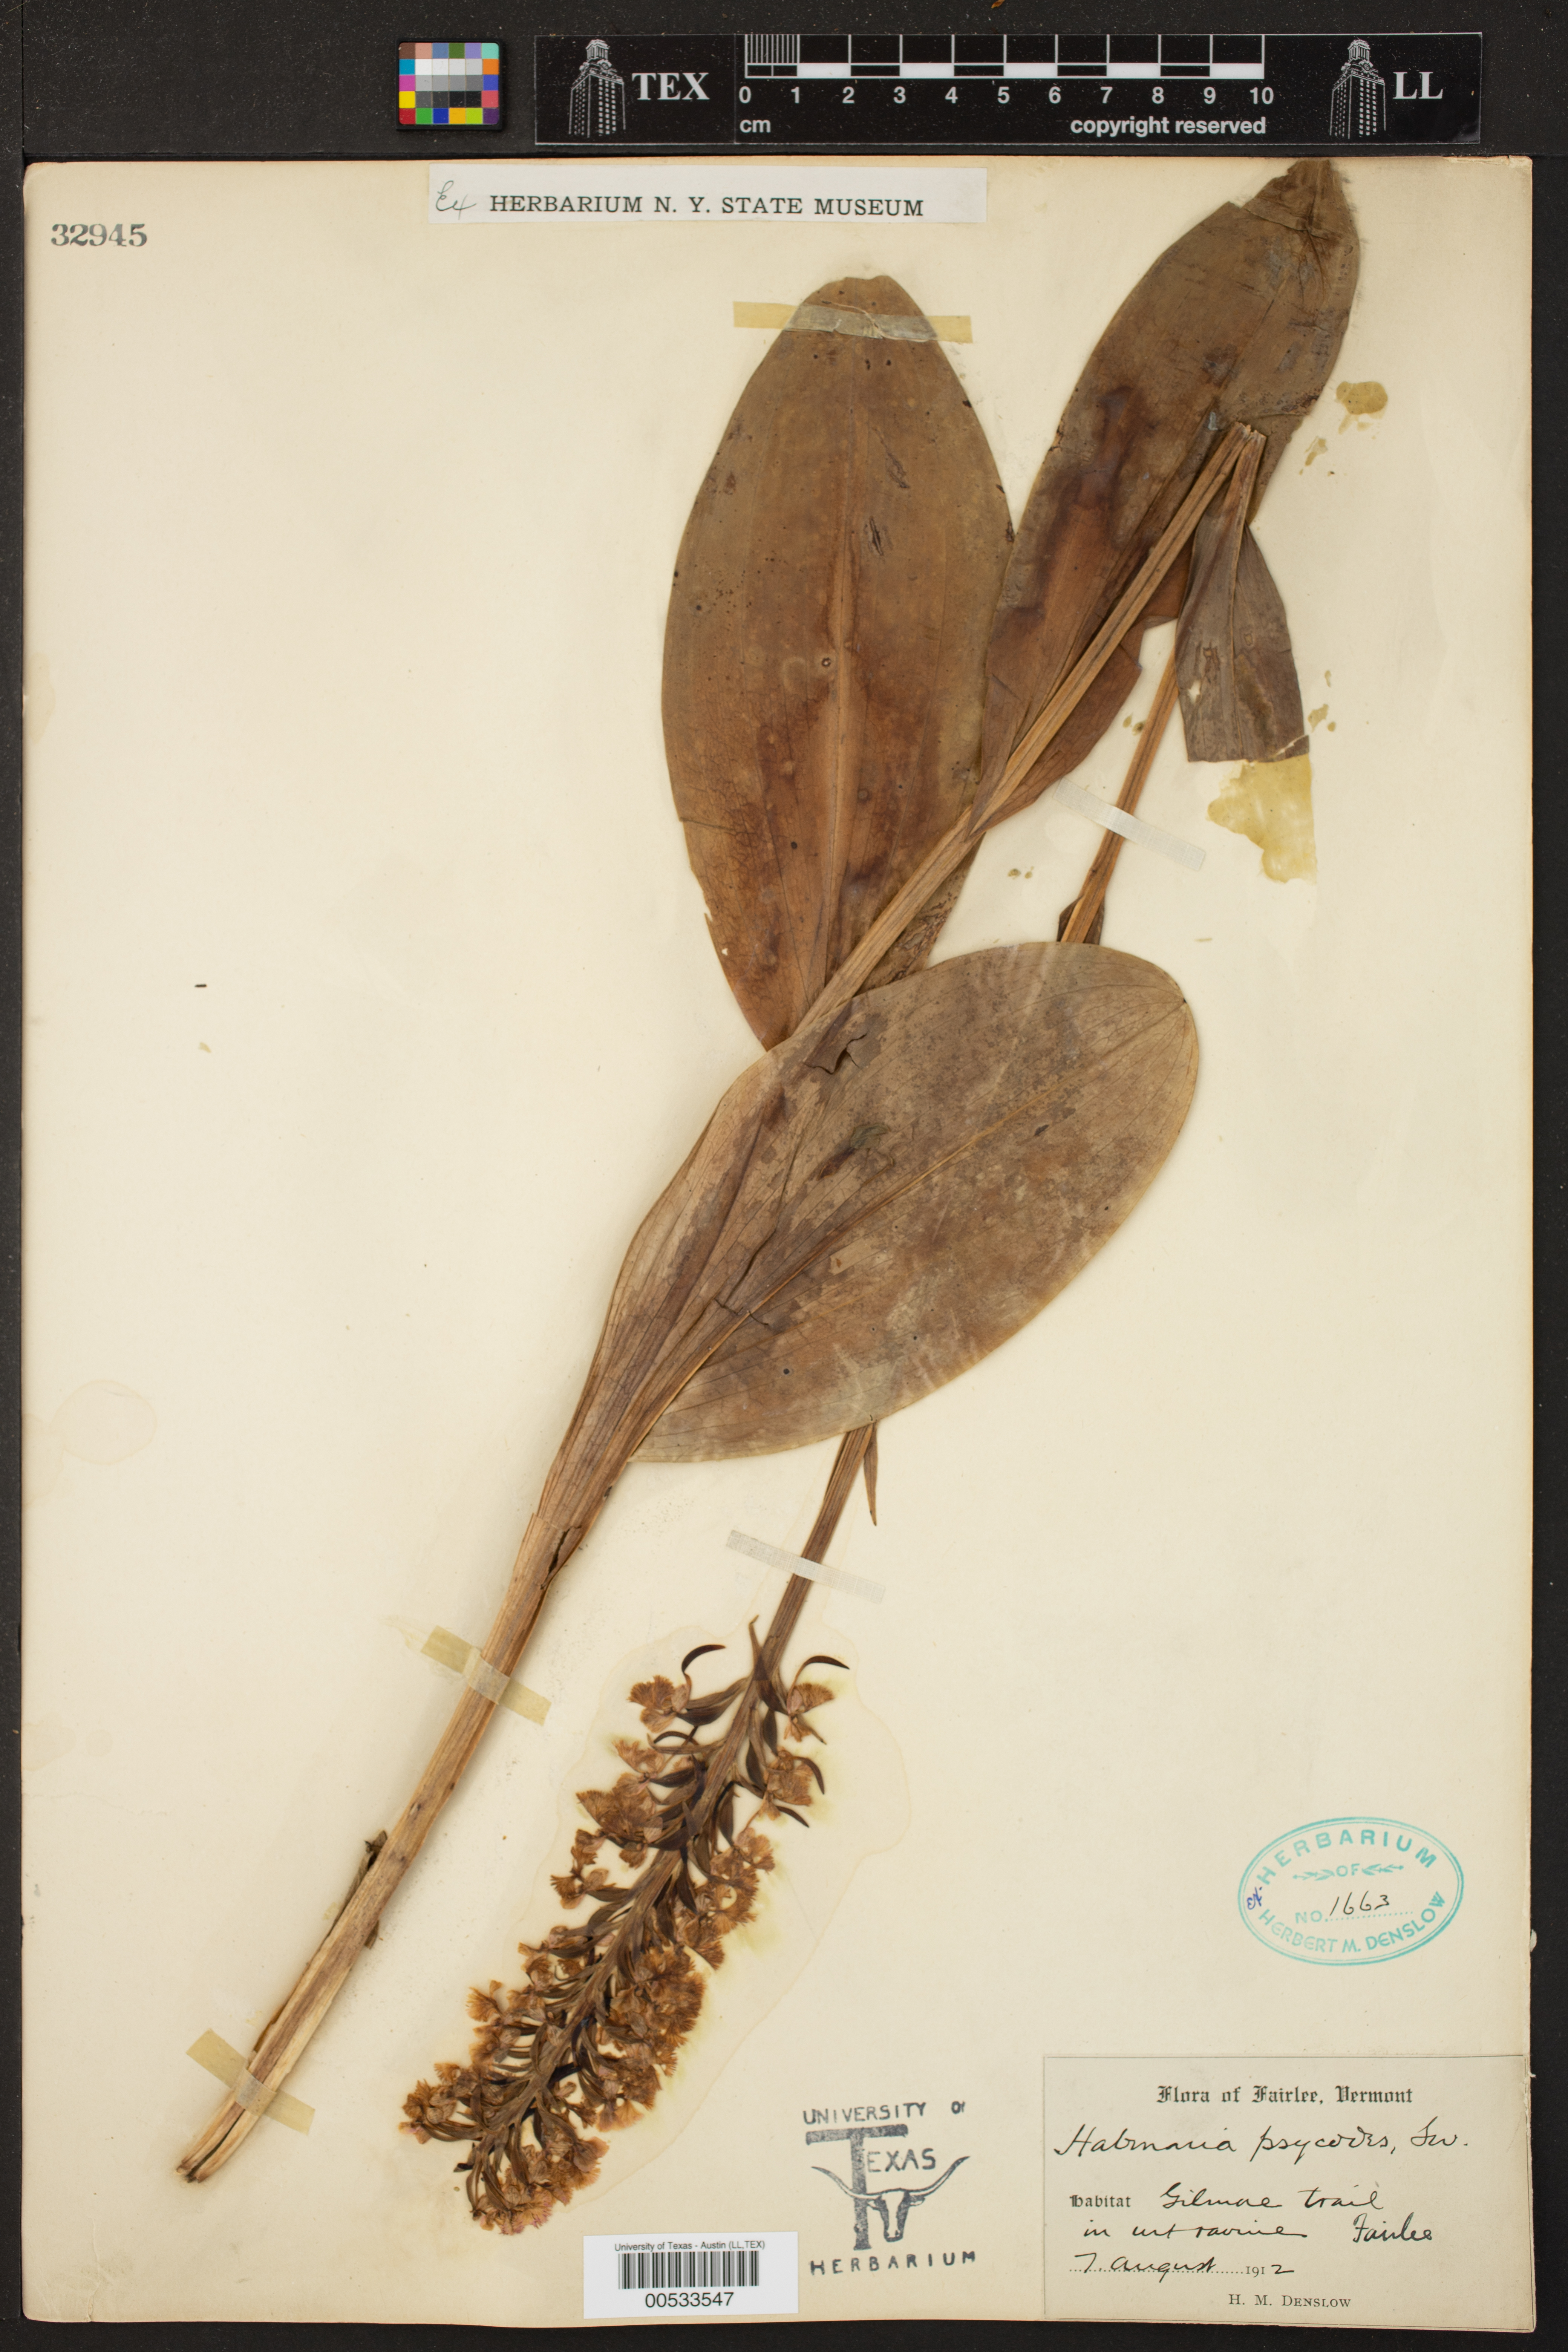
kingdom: Plantae
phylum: Tracheophyta
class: Liliopsida
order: Asparagales
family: Orchidaceae
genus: Platanthera
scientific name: Platanthera psycodes
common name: Lesser purple fringed orchid
